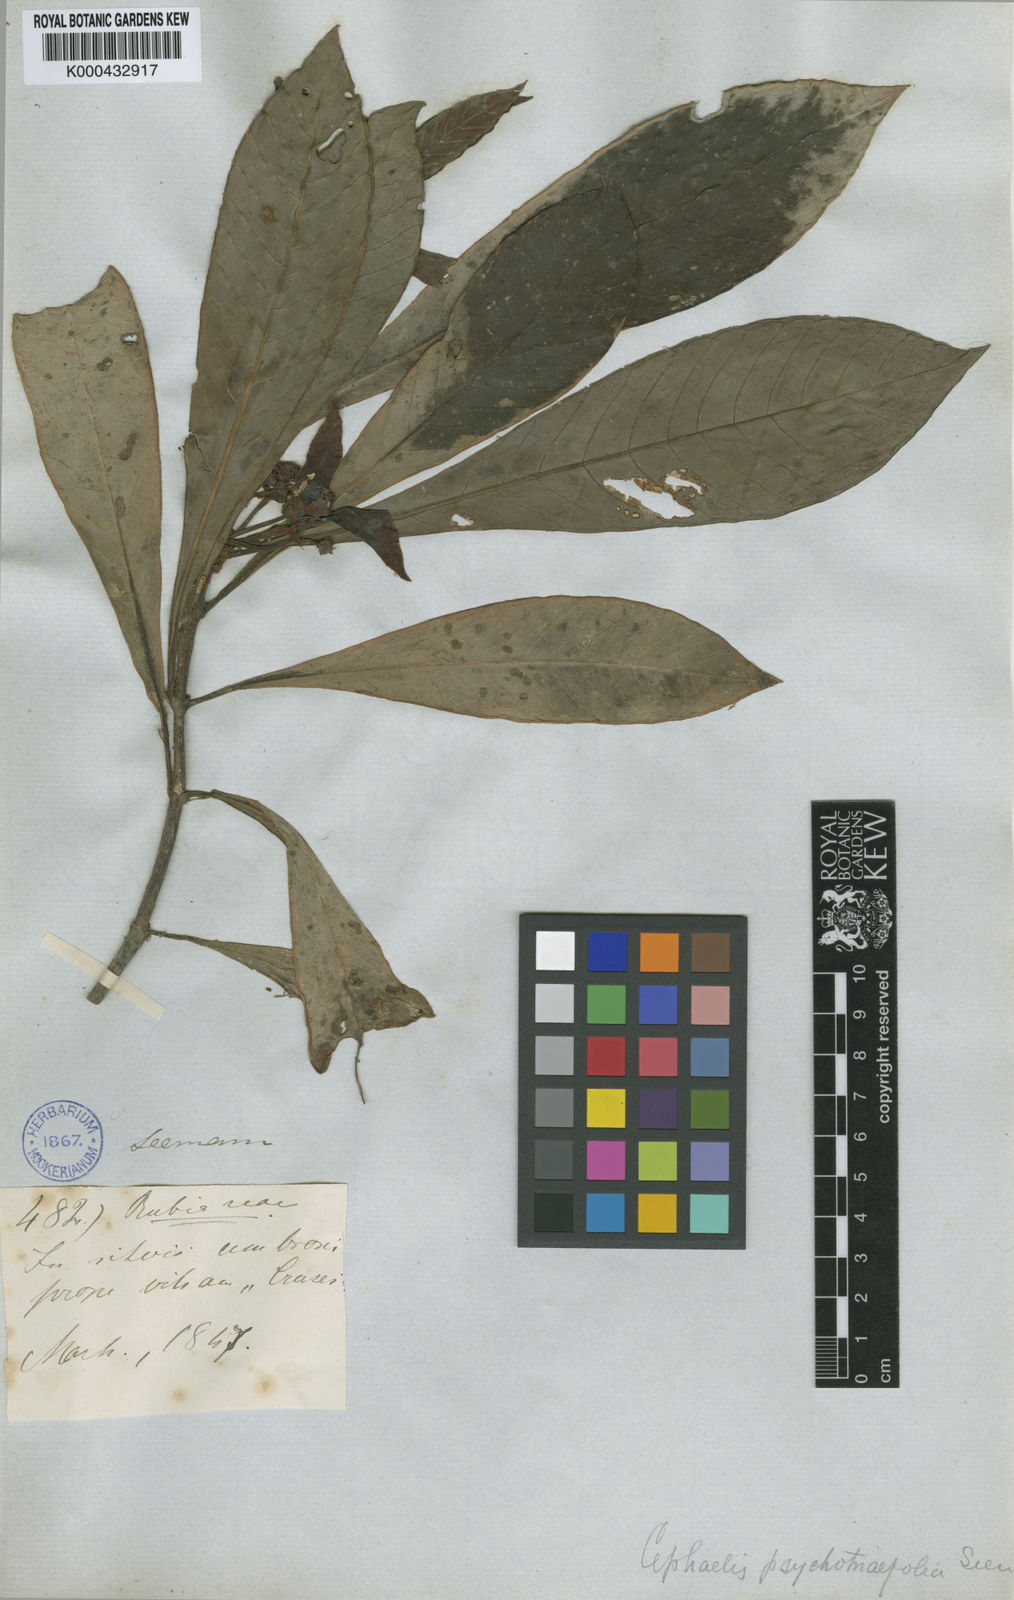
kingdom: Plantae
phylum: Tracheophyta
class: Magnoliopsida
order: Gentianales
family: Rubiaceae
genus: Psychotria
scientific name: Psychotria psychotriifolia
